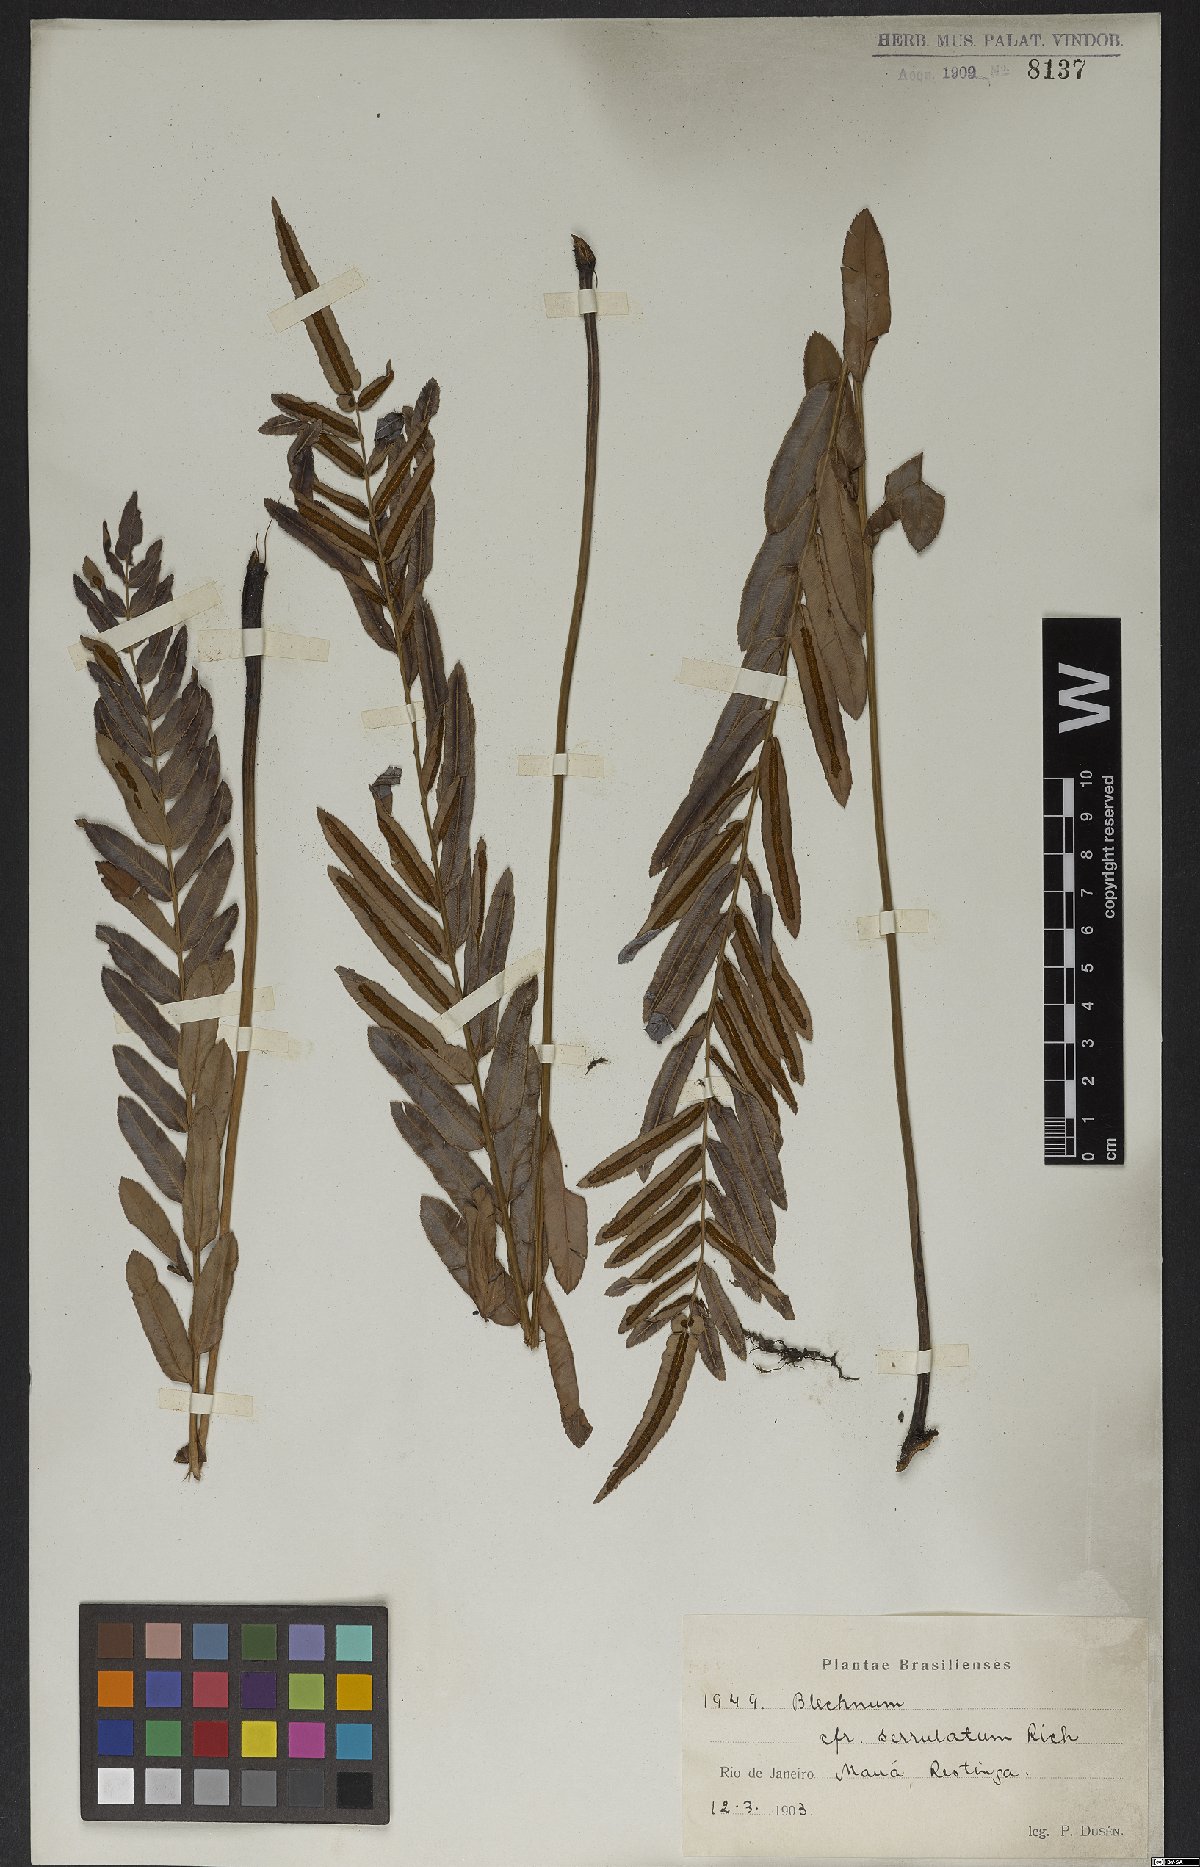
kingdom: Plantae
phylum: Tracheophyta
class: Polypodiopsida
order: Polypodiales
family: Blechnaceae
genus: Telmatoblechnum
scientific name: Telmatoblechnum serrulatum
